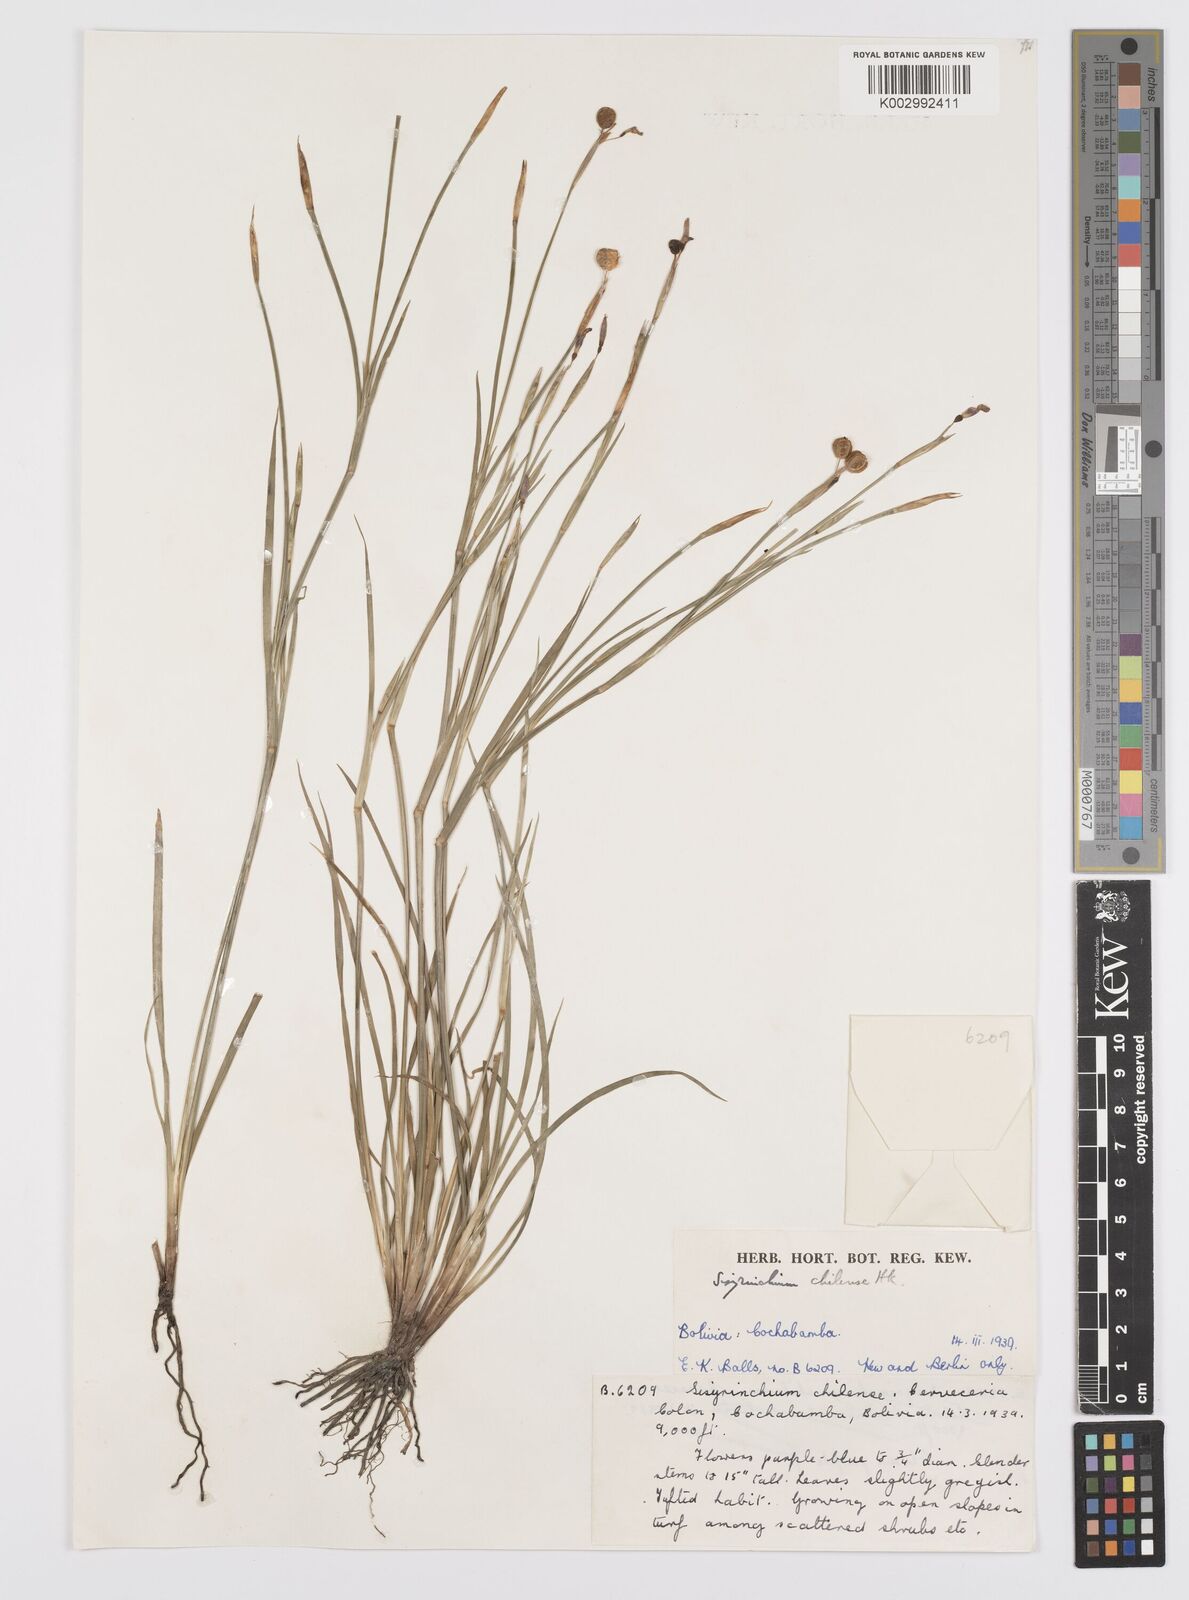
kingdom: Plantae
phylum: Tracheophyta
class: Liliopsida
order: Asparagales
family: Iridaceae
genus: Sisyrinchium
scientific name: Sisyrinchium chilense
